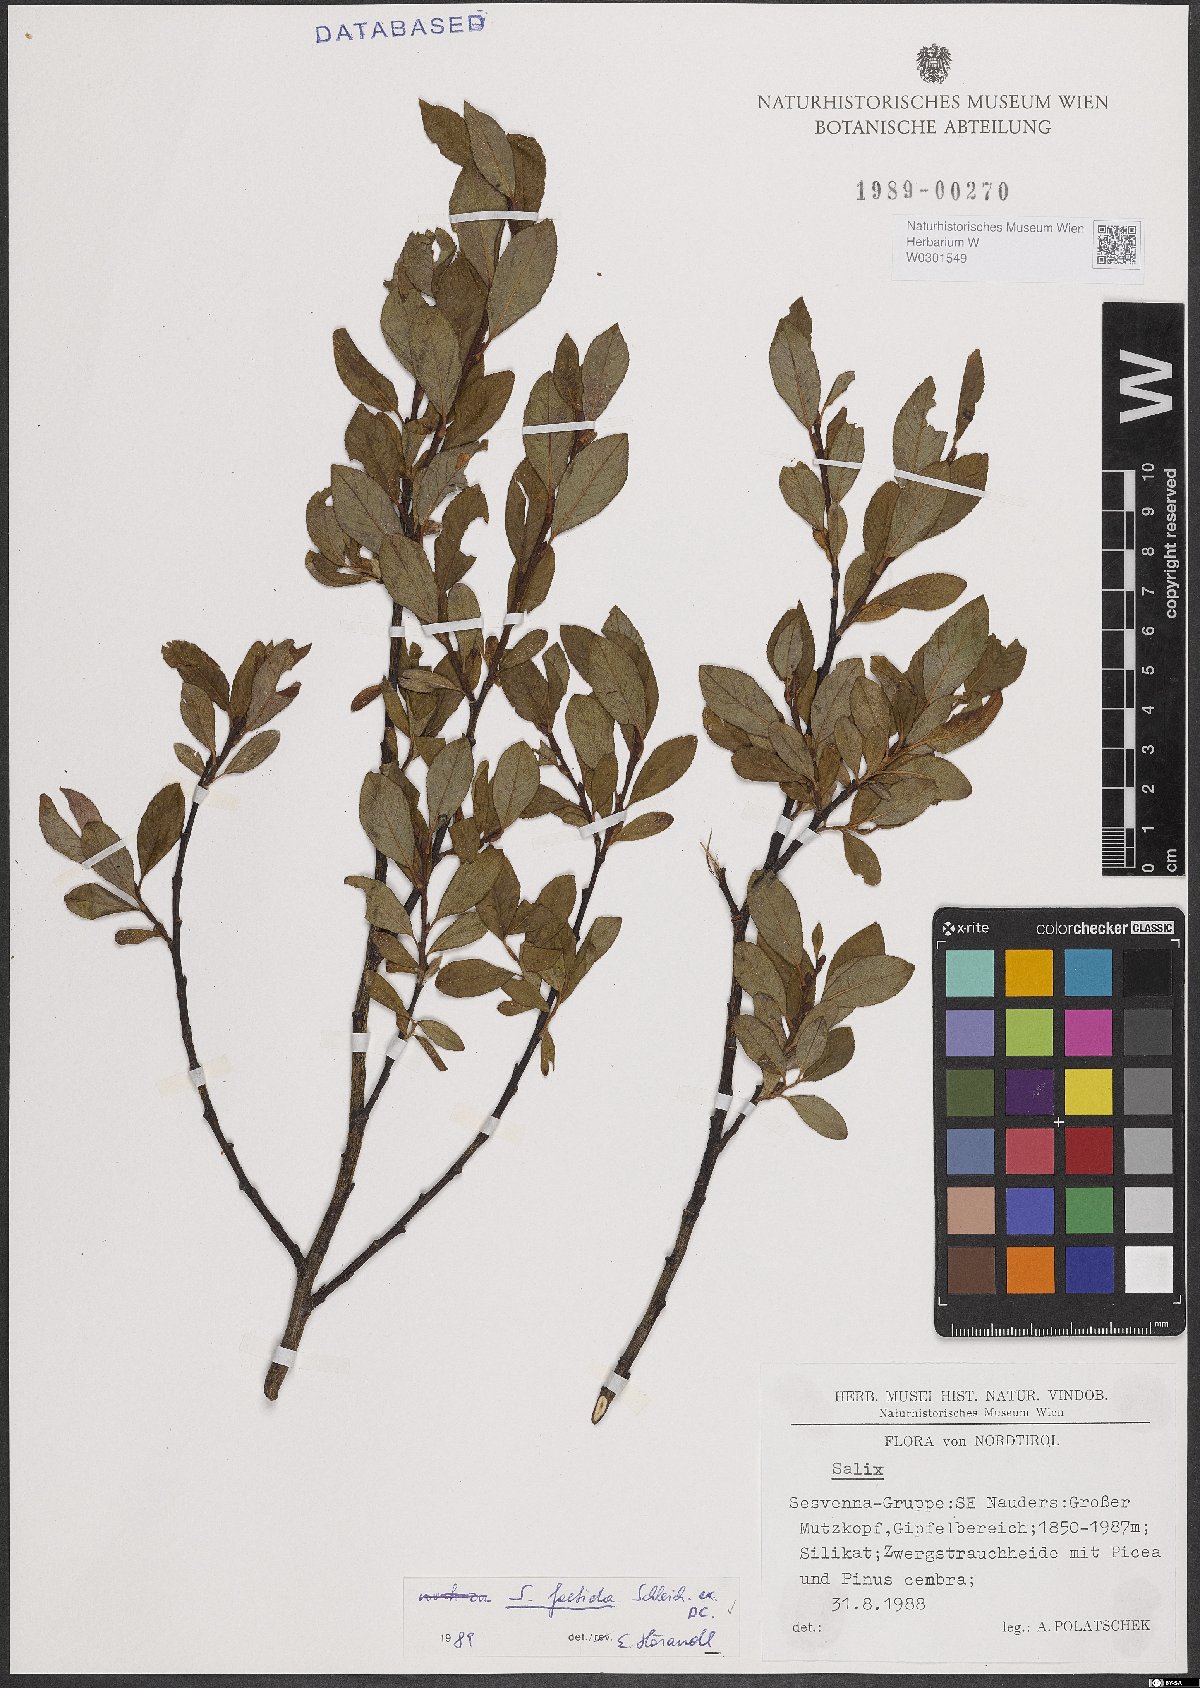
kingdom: Plantae
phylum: Tracheophyta
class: Magnoliopsida
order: Malpighiales
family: Salicaceae
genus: Salix
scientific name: Salix foetida
